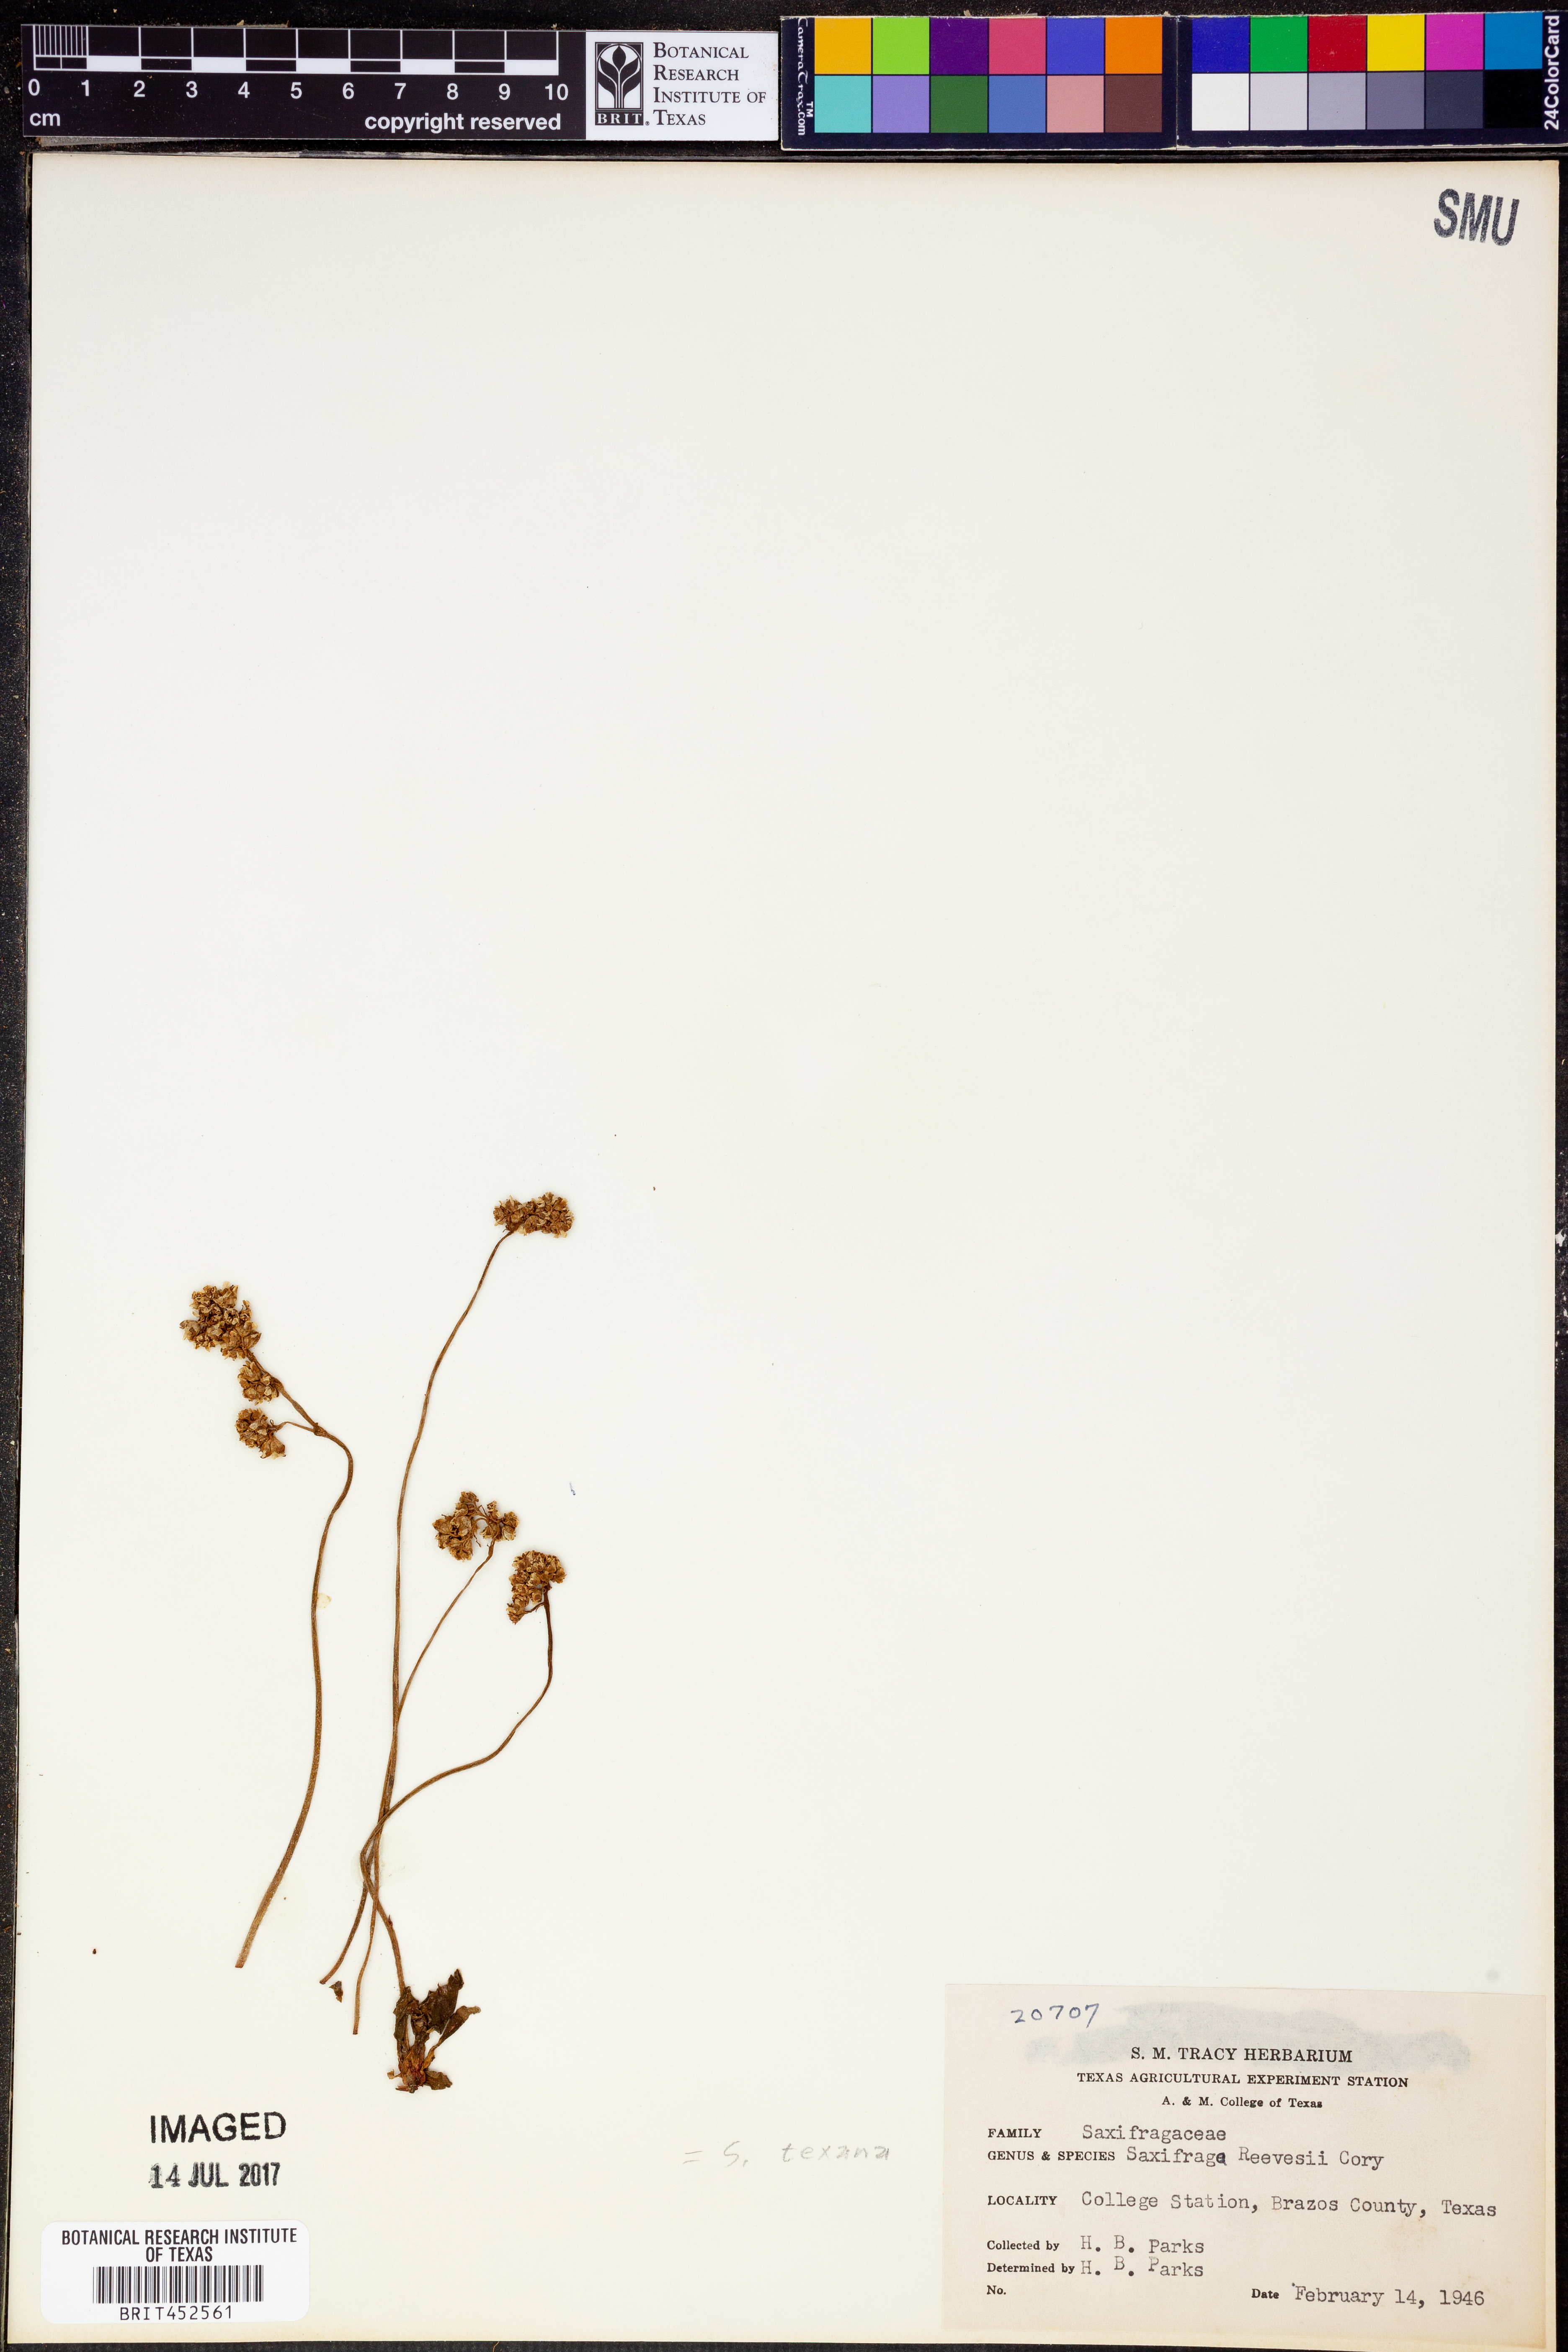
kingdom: Plantae
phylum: Tracheophyta
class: Magnoliopsida
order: Saxifragales
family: Saxifragaceae
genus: Micranthes
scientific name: Micranthes texana
